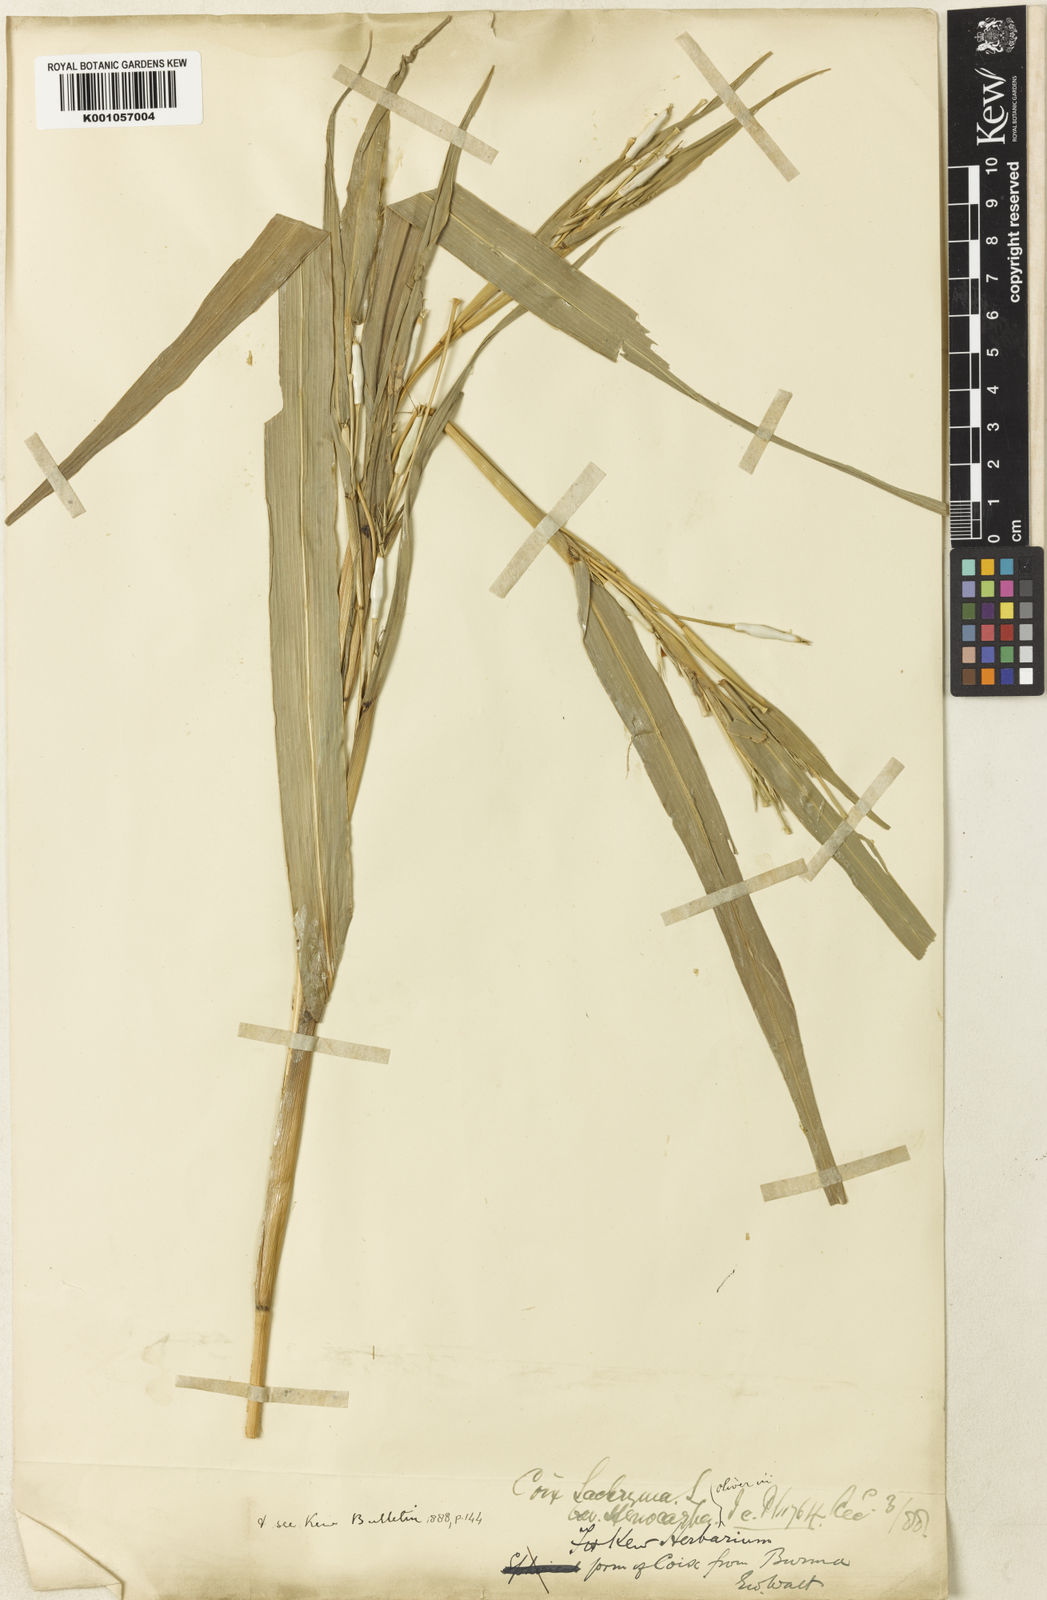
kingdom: Plantae
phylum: Tracheophyta
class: Liliopsida
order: Poales
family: Poaceae
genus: Coix
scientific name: Coix lacryma-jobi
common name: Job's tears
